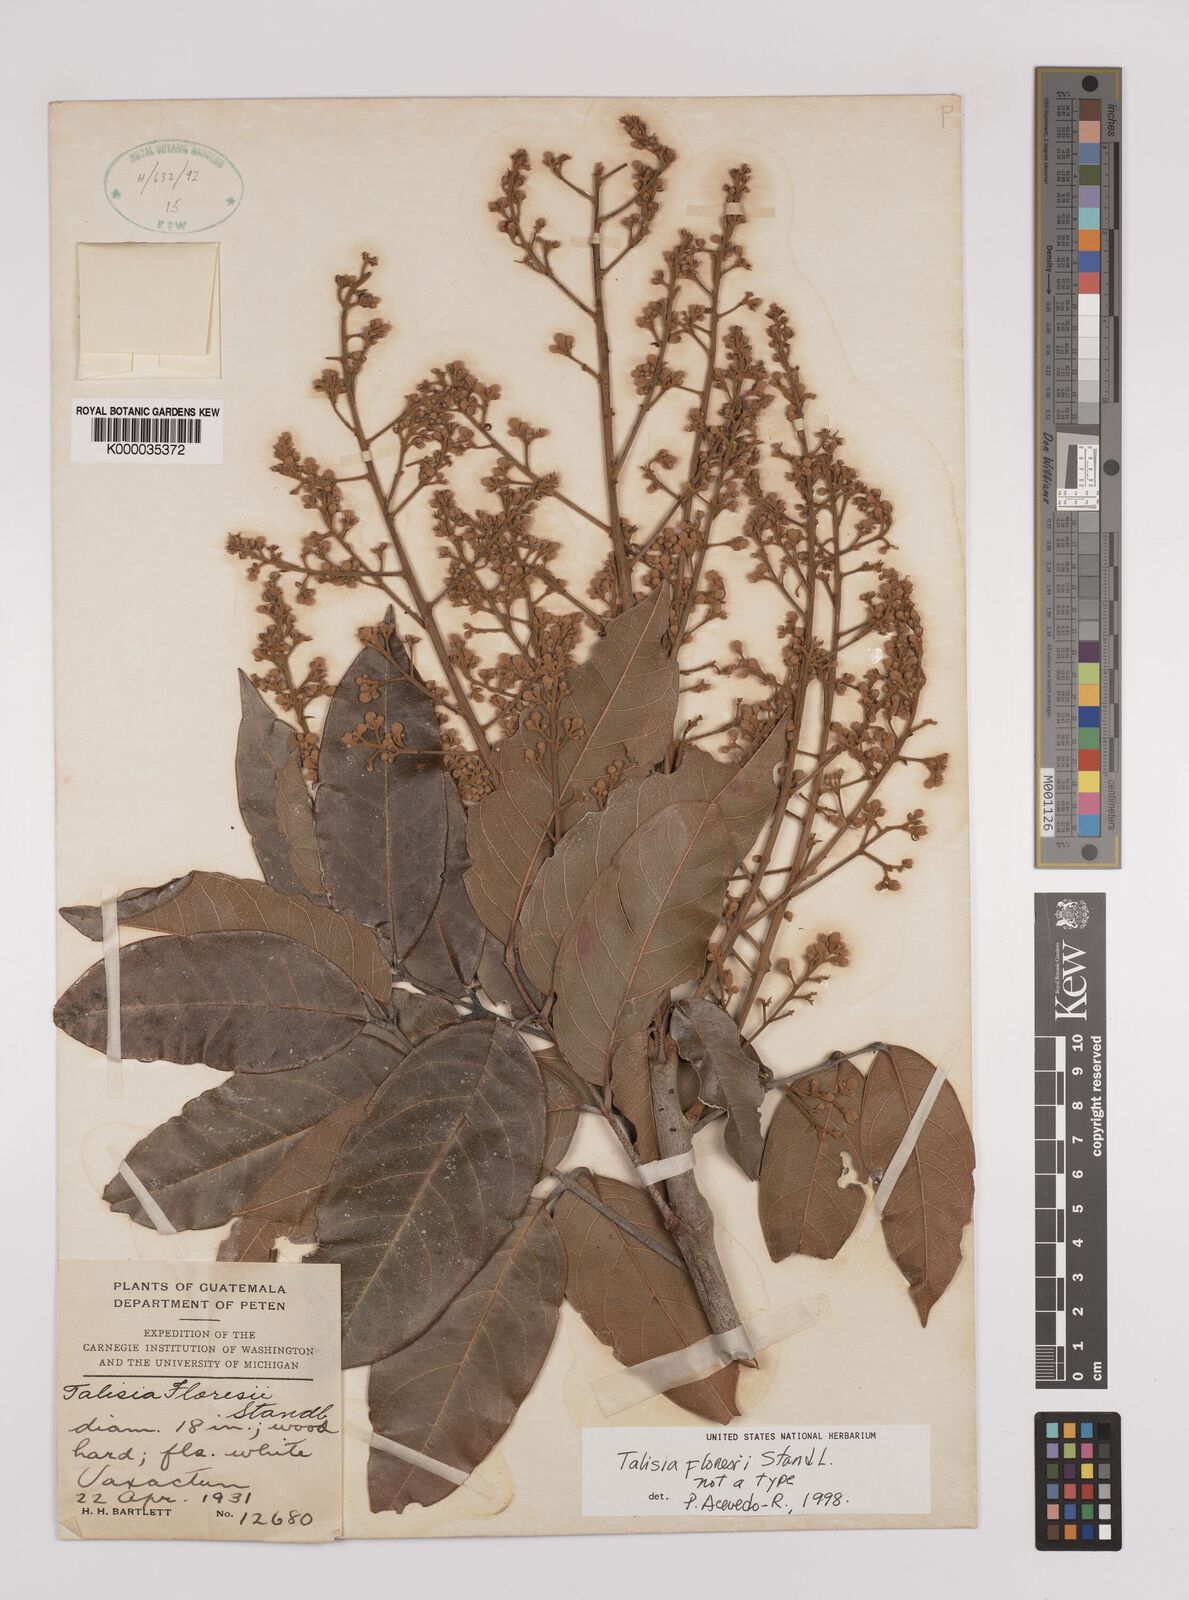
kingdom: Plantae
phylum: Tracheophyta
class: Magnoliopsida
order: Sapindales
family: Sapindaceae
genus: Talisia
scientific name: Talisia floresii
